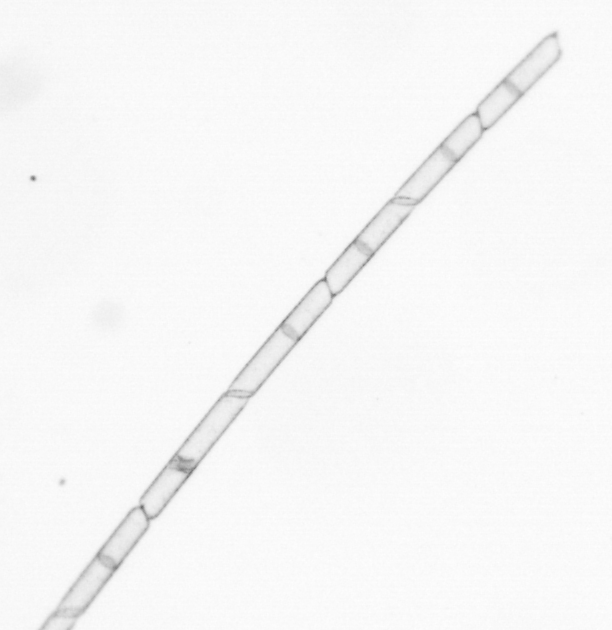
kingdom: Chromista
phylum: Ochrophyta
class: Bacillariophyceae
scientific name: Bacillariophyceae
